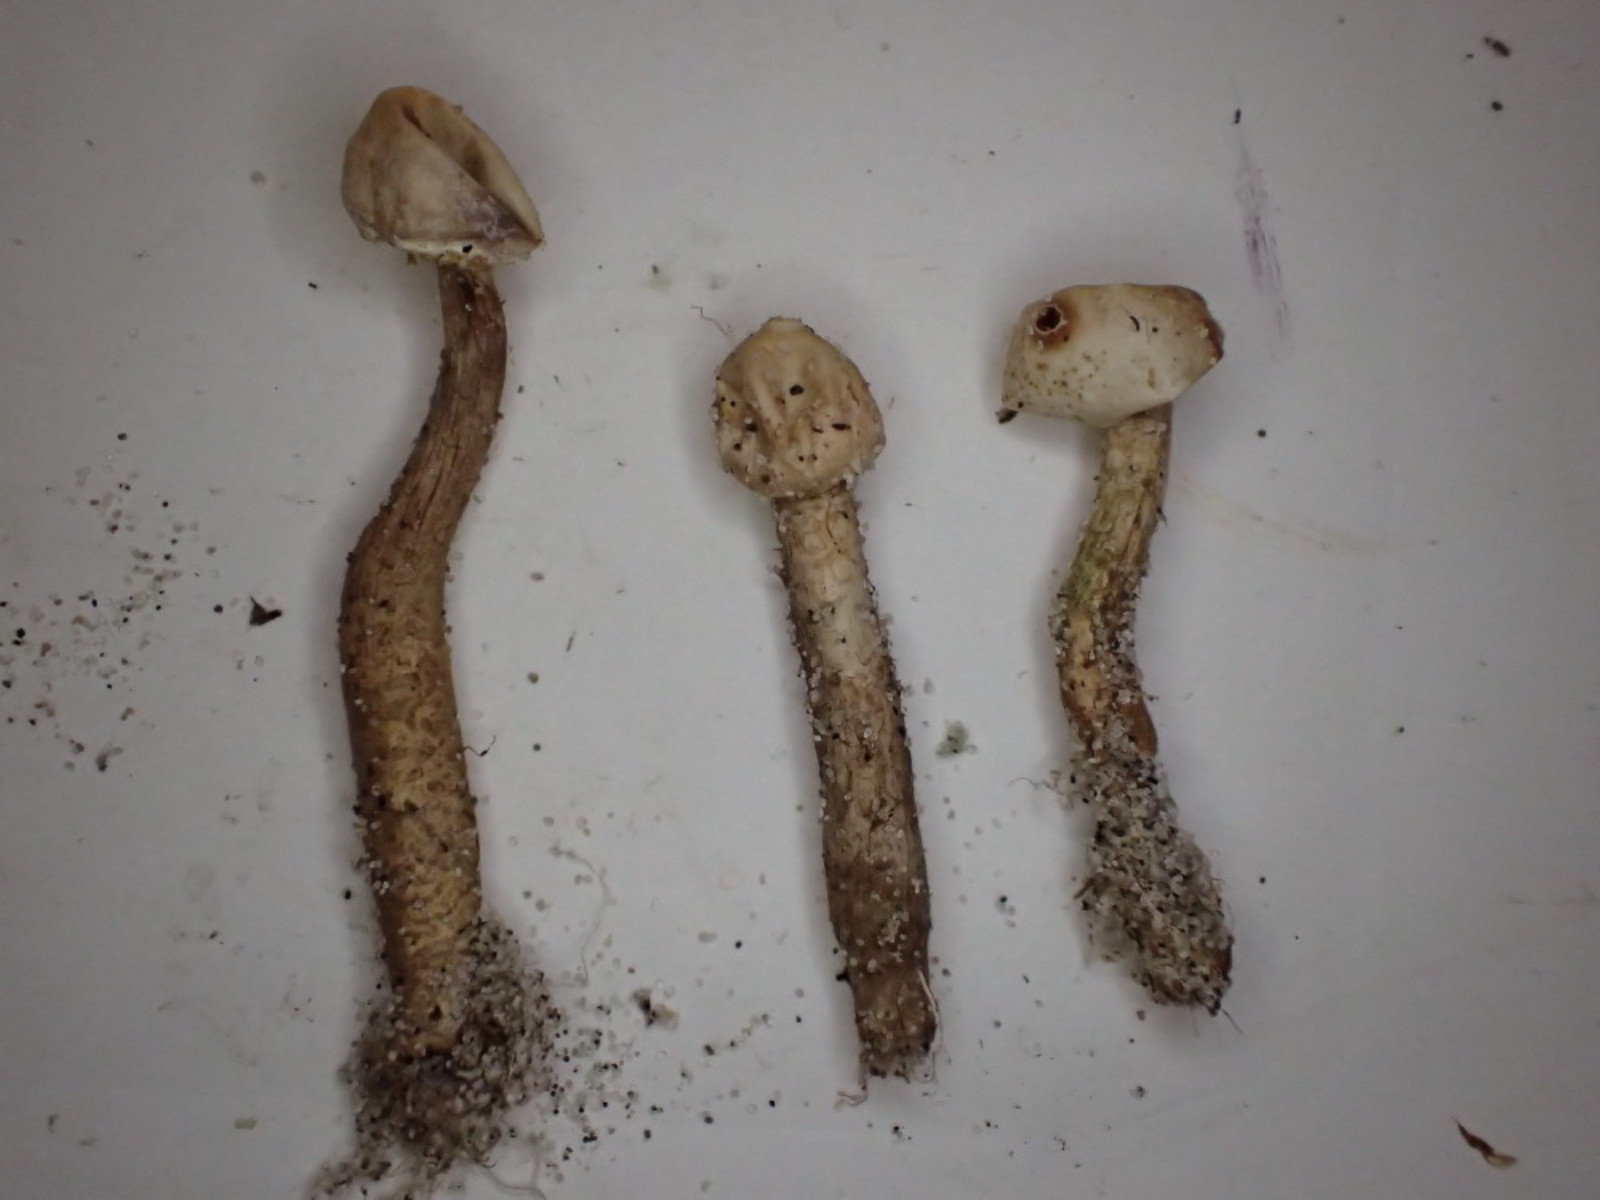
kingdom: Fungi
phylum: Basidiomycota
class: Agaricomycetes
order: Agaricales
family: Agaricaceae
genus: Tulostoma
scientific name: Tulostoma brumale
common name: vinter-stilkbovist
